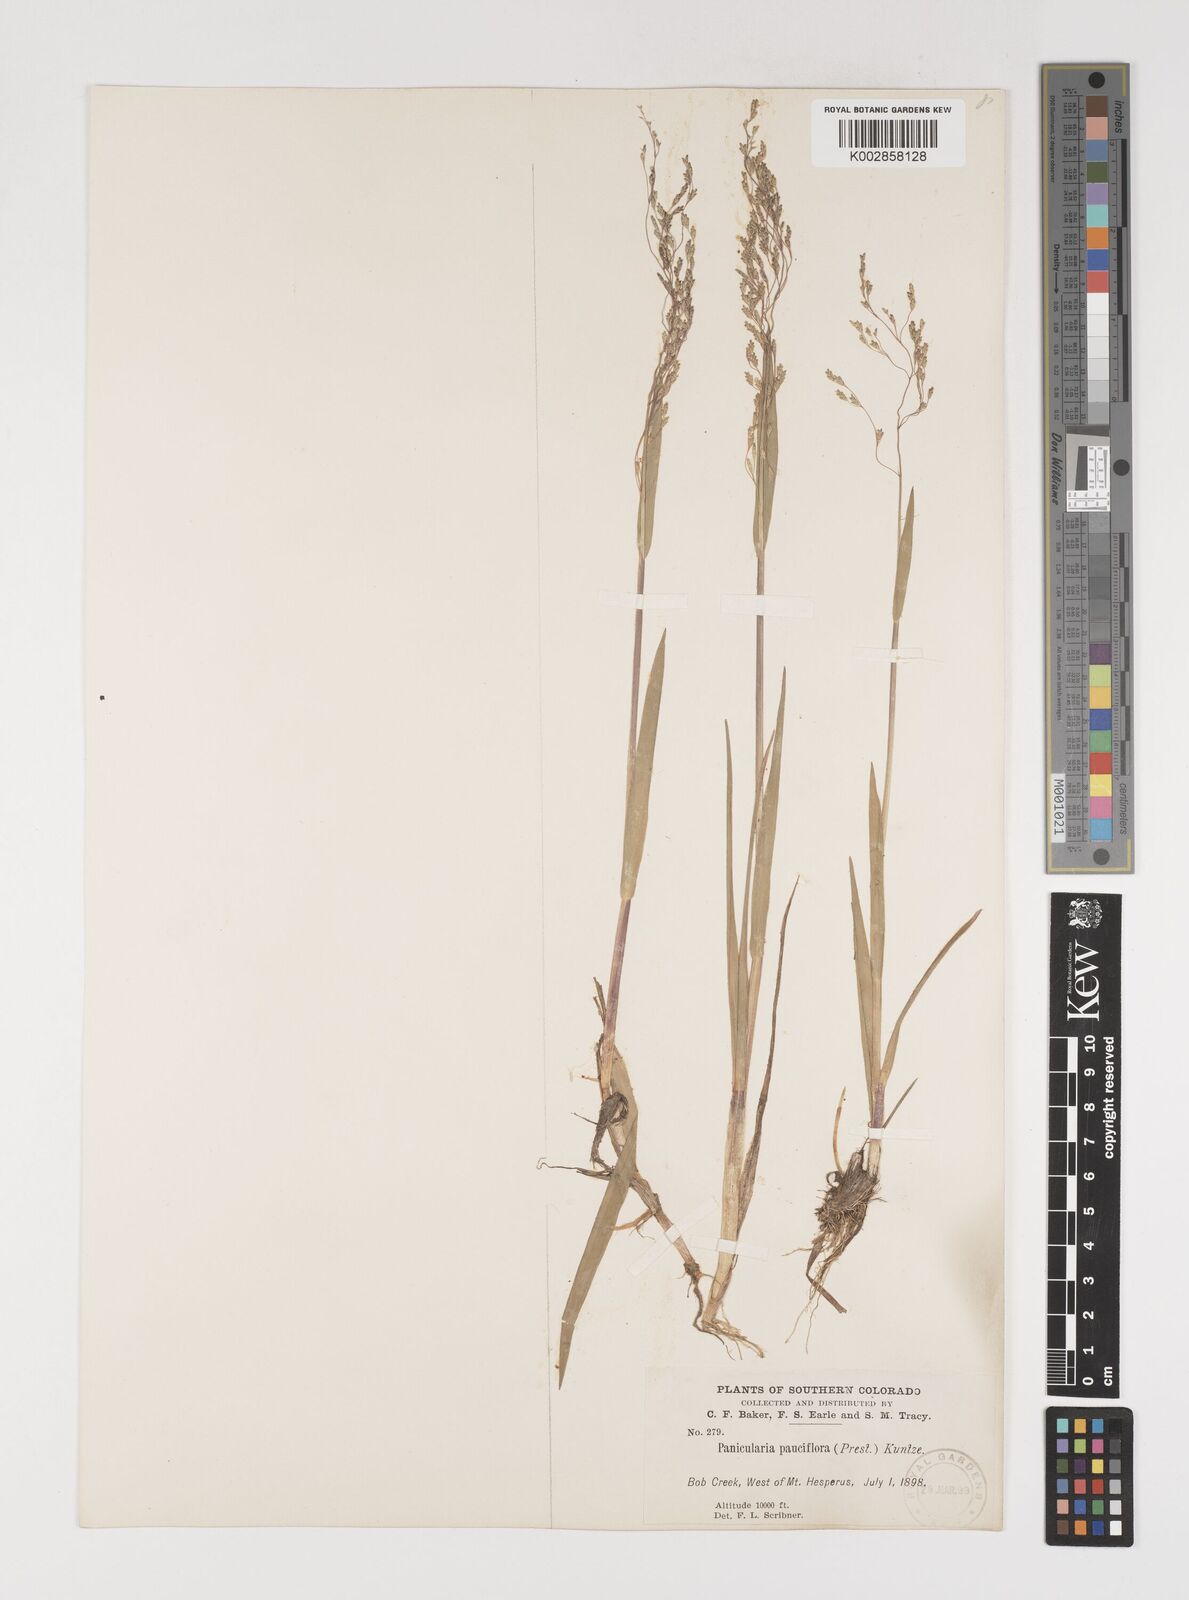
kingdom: Plantae
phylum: Tracheophyta
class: Liliopsida
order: Poales
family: Poaceae
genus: Torreyochloa
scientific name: Torreyochloa pallida
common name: Pale false mannagrass
